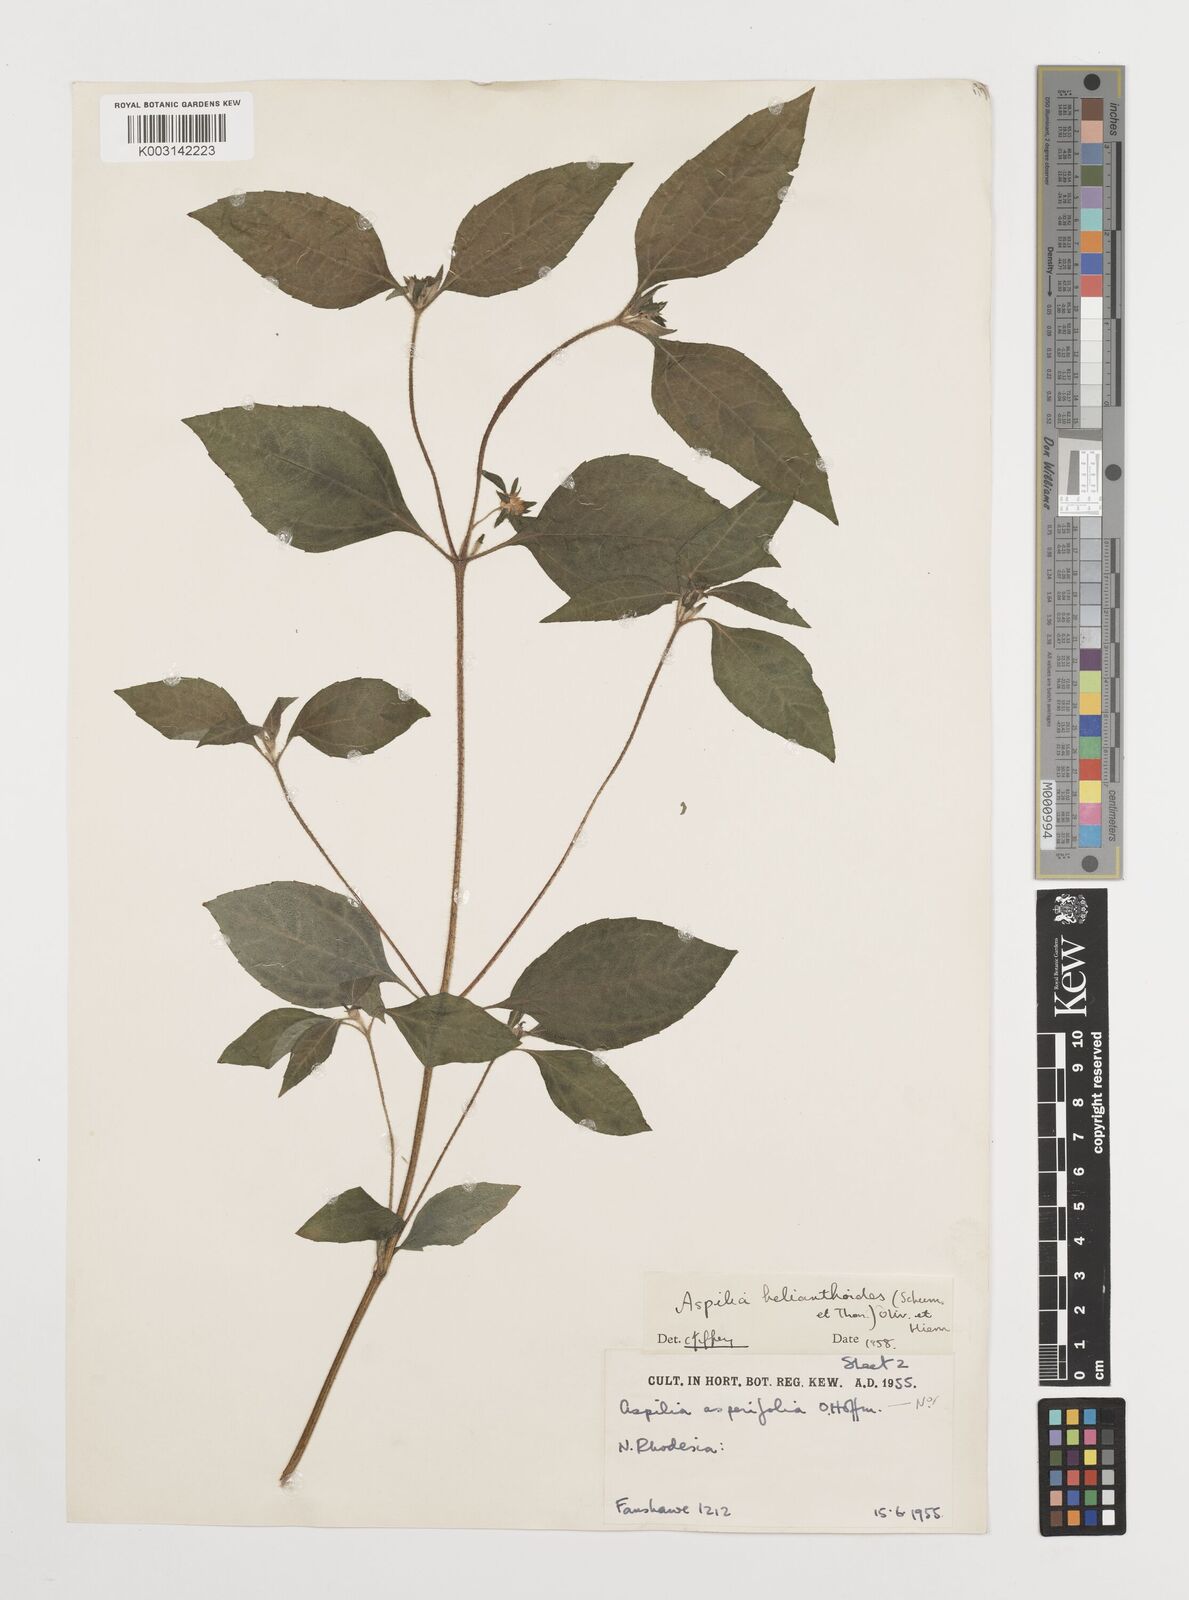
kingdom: Plantae
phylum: Tracheophyta
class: Magnoliopsida
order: Asterales
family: Asteraceae
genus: Aspilia
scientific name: Aspilia ciliata
